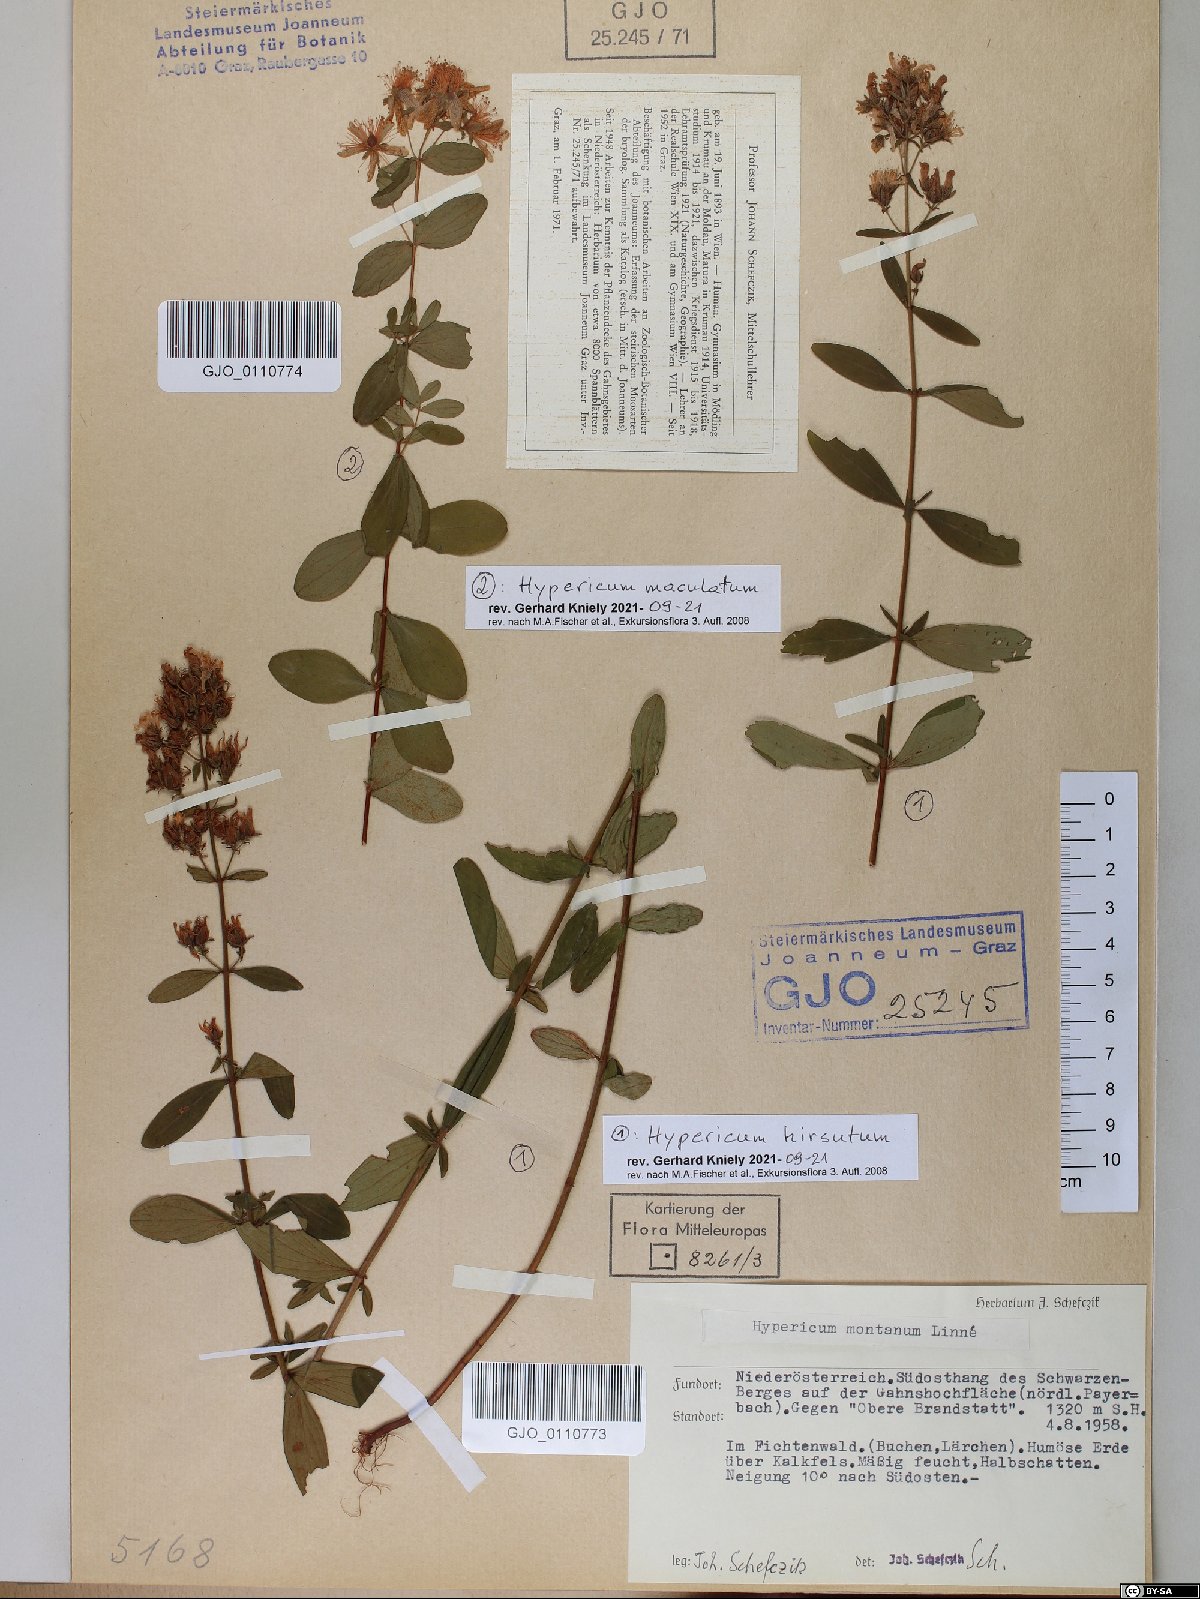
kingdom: Plantae
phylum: Tracheophyta
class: Magnoliopsida
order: Malpighiales
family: Hypericaceae
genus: Hypericum
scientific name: Hypericum maculatum
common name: Imperforate st. john's-wort
